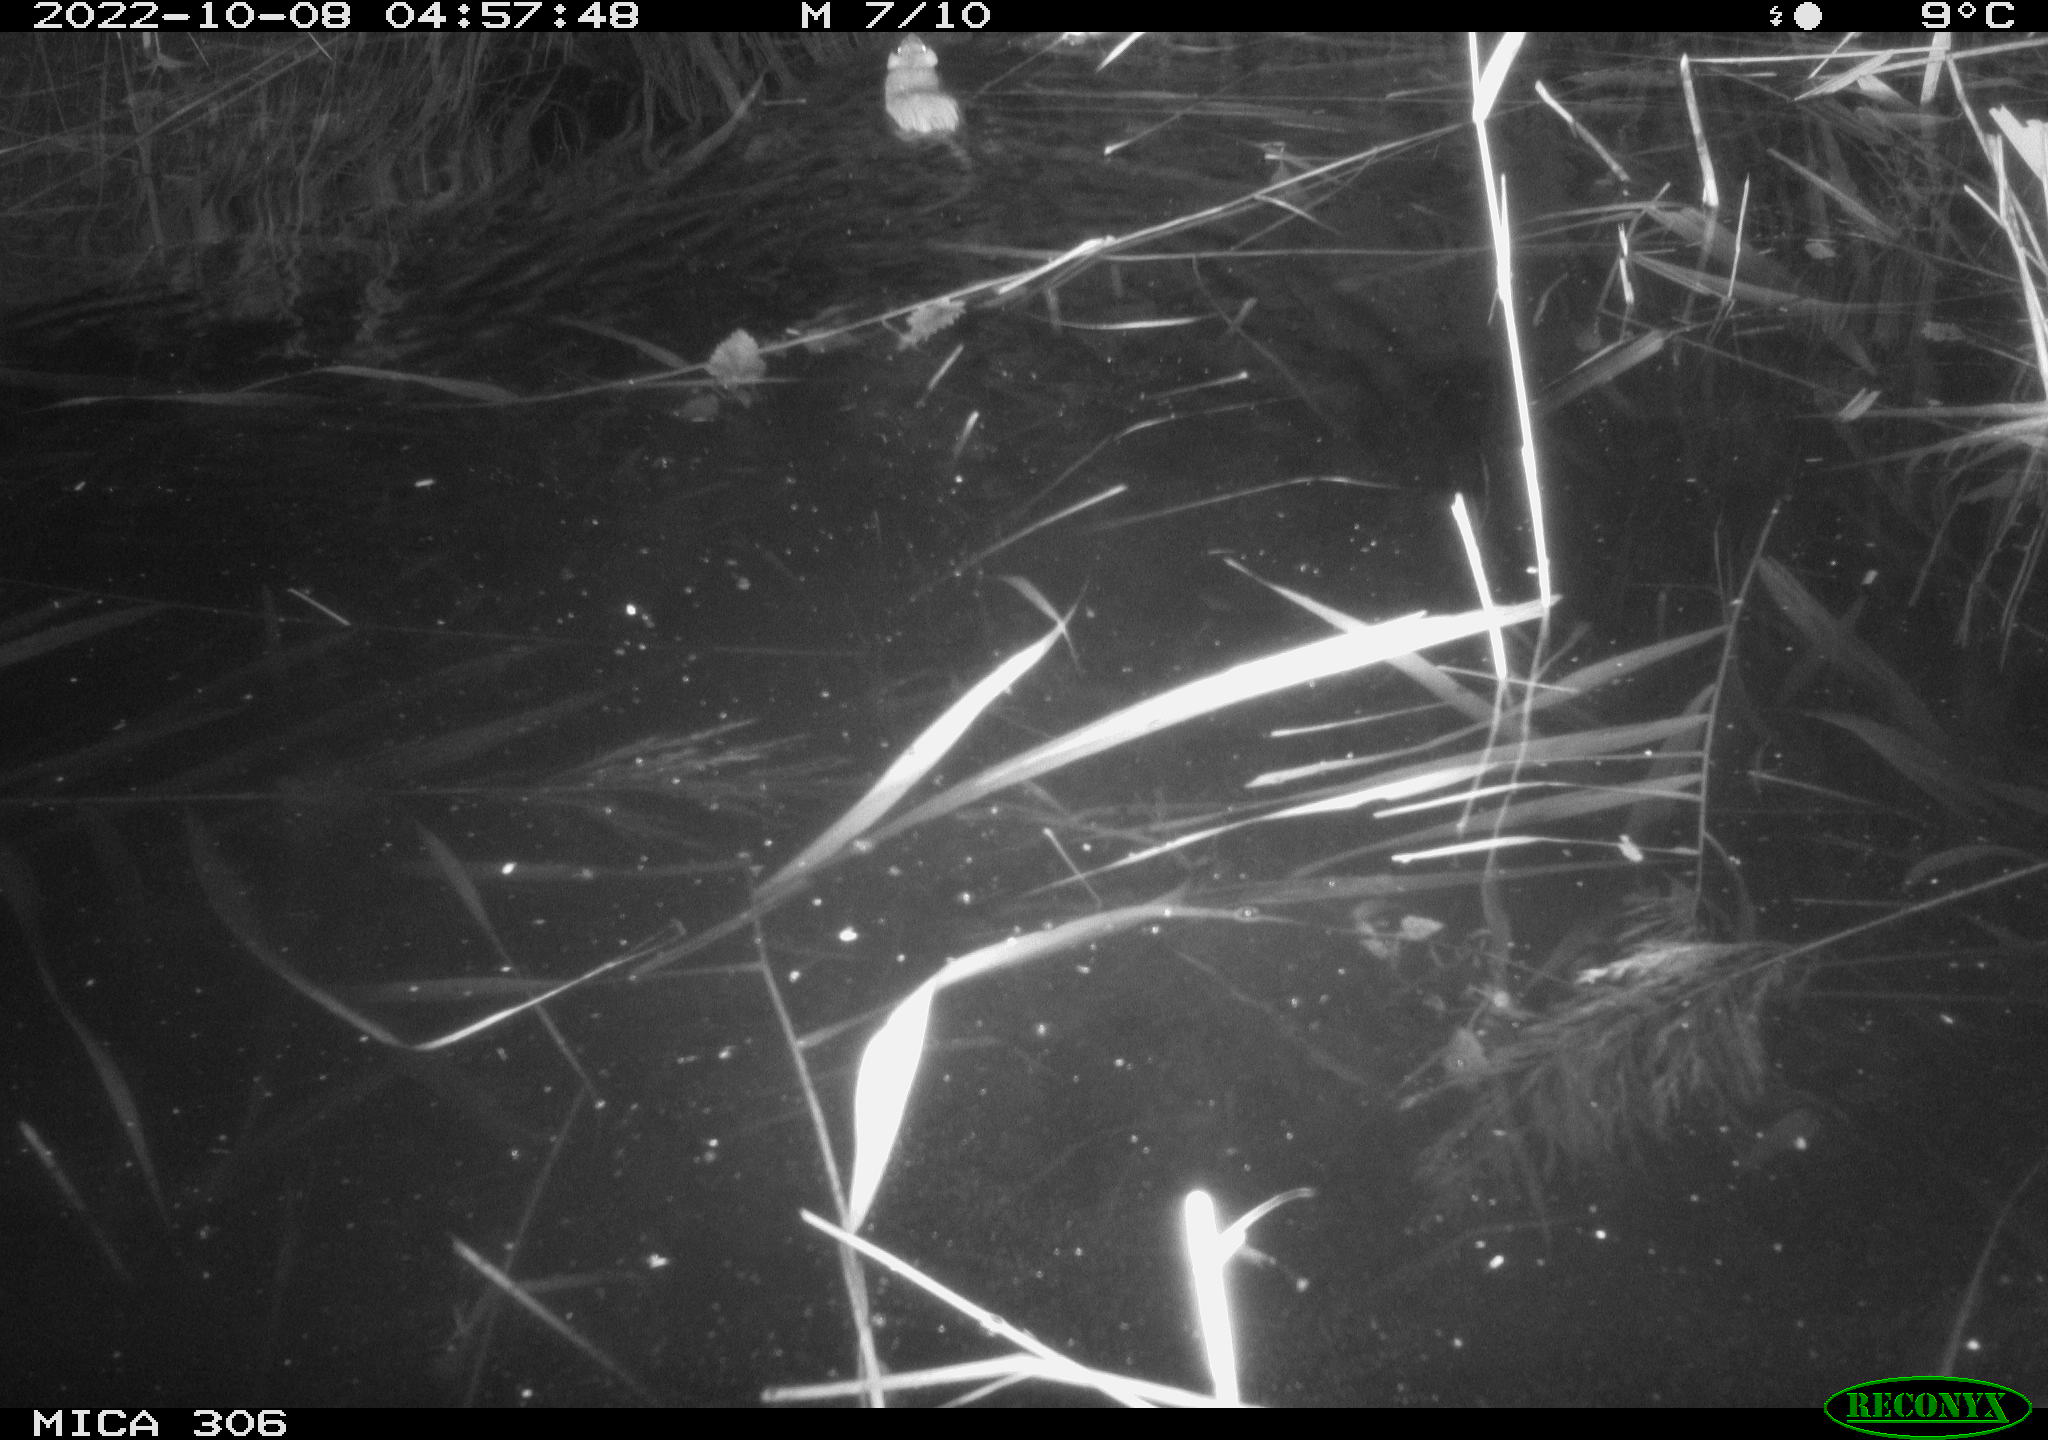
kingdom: Animalia
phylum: Chordata
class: Mammalia
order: Rodentia
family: Muridae
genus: Rattus
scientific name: Rattus norvegicus
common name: Brown rat
